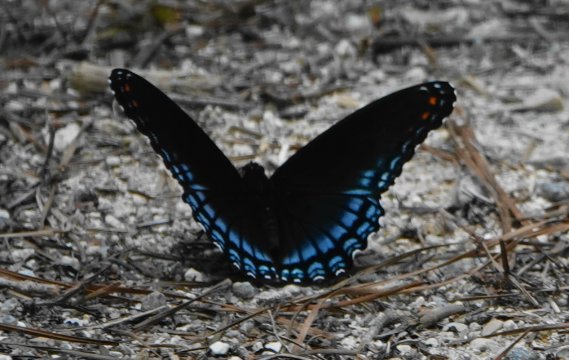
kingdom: Animalia
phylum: Arthropoda
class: Insecta
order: Lepidoptera
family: Nymphalidae
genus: Limenitis
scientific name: Limenitis arthemis
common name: Red-spotted Admiral
